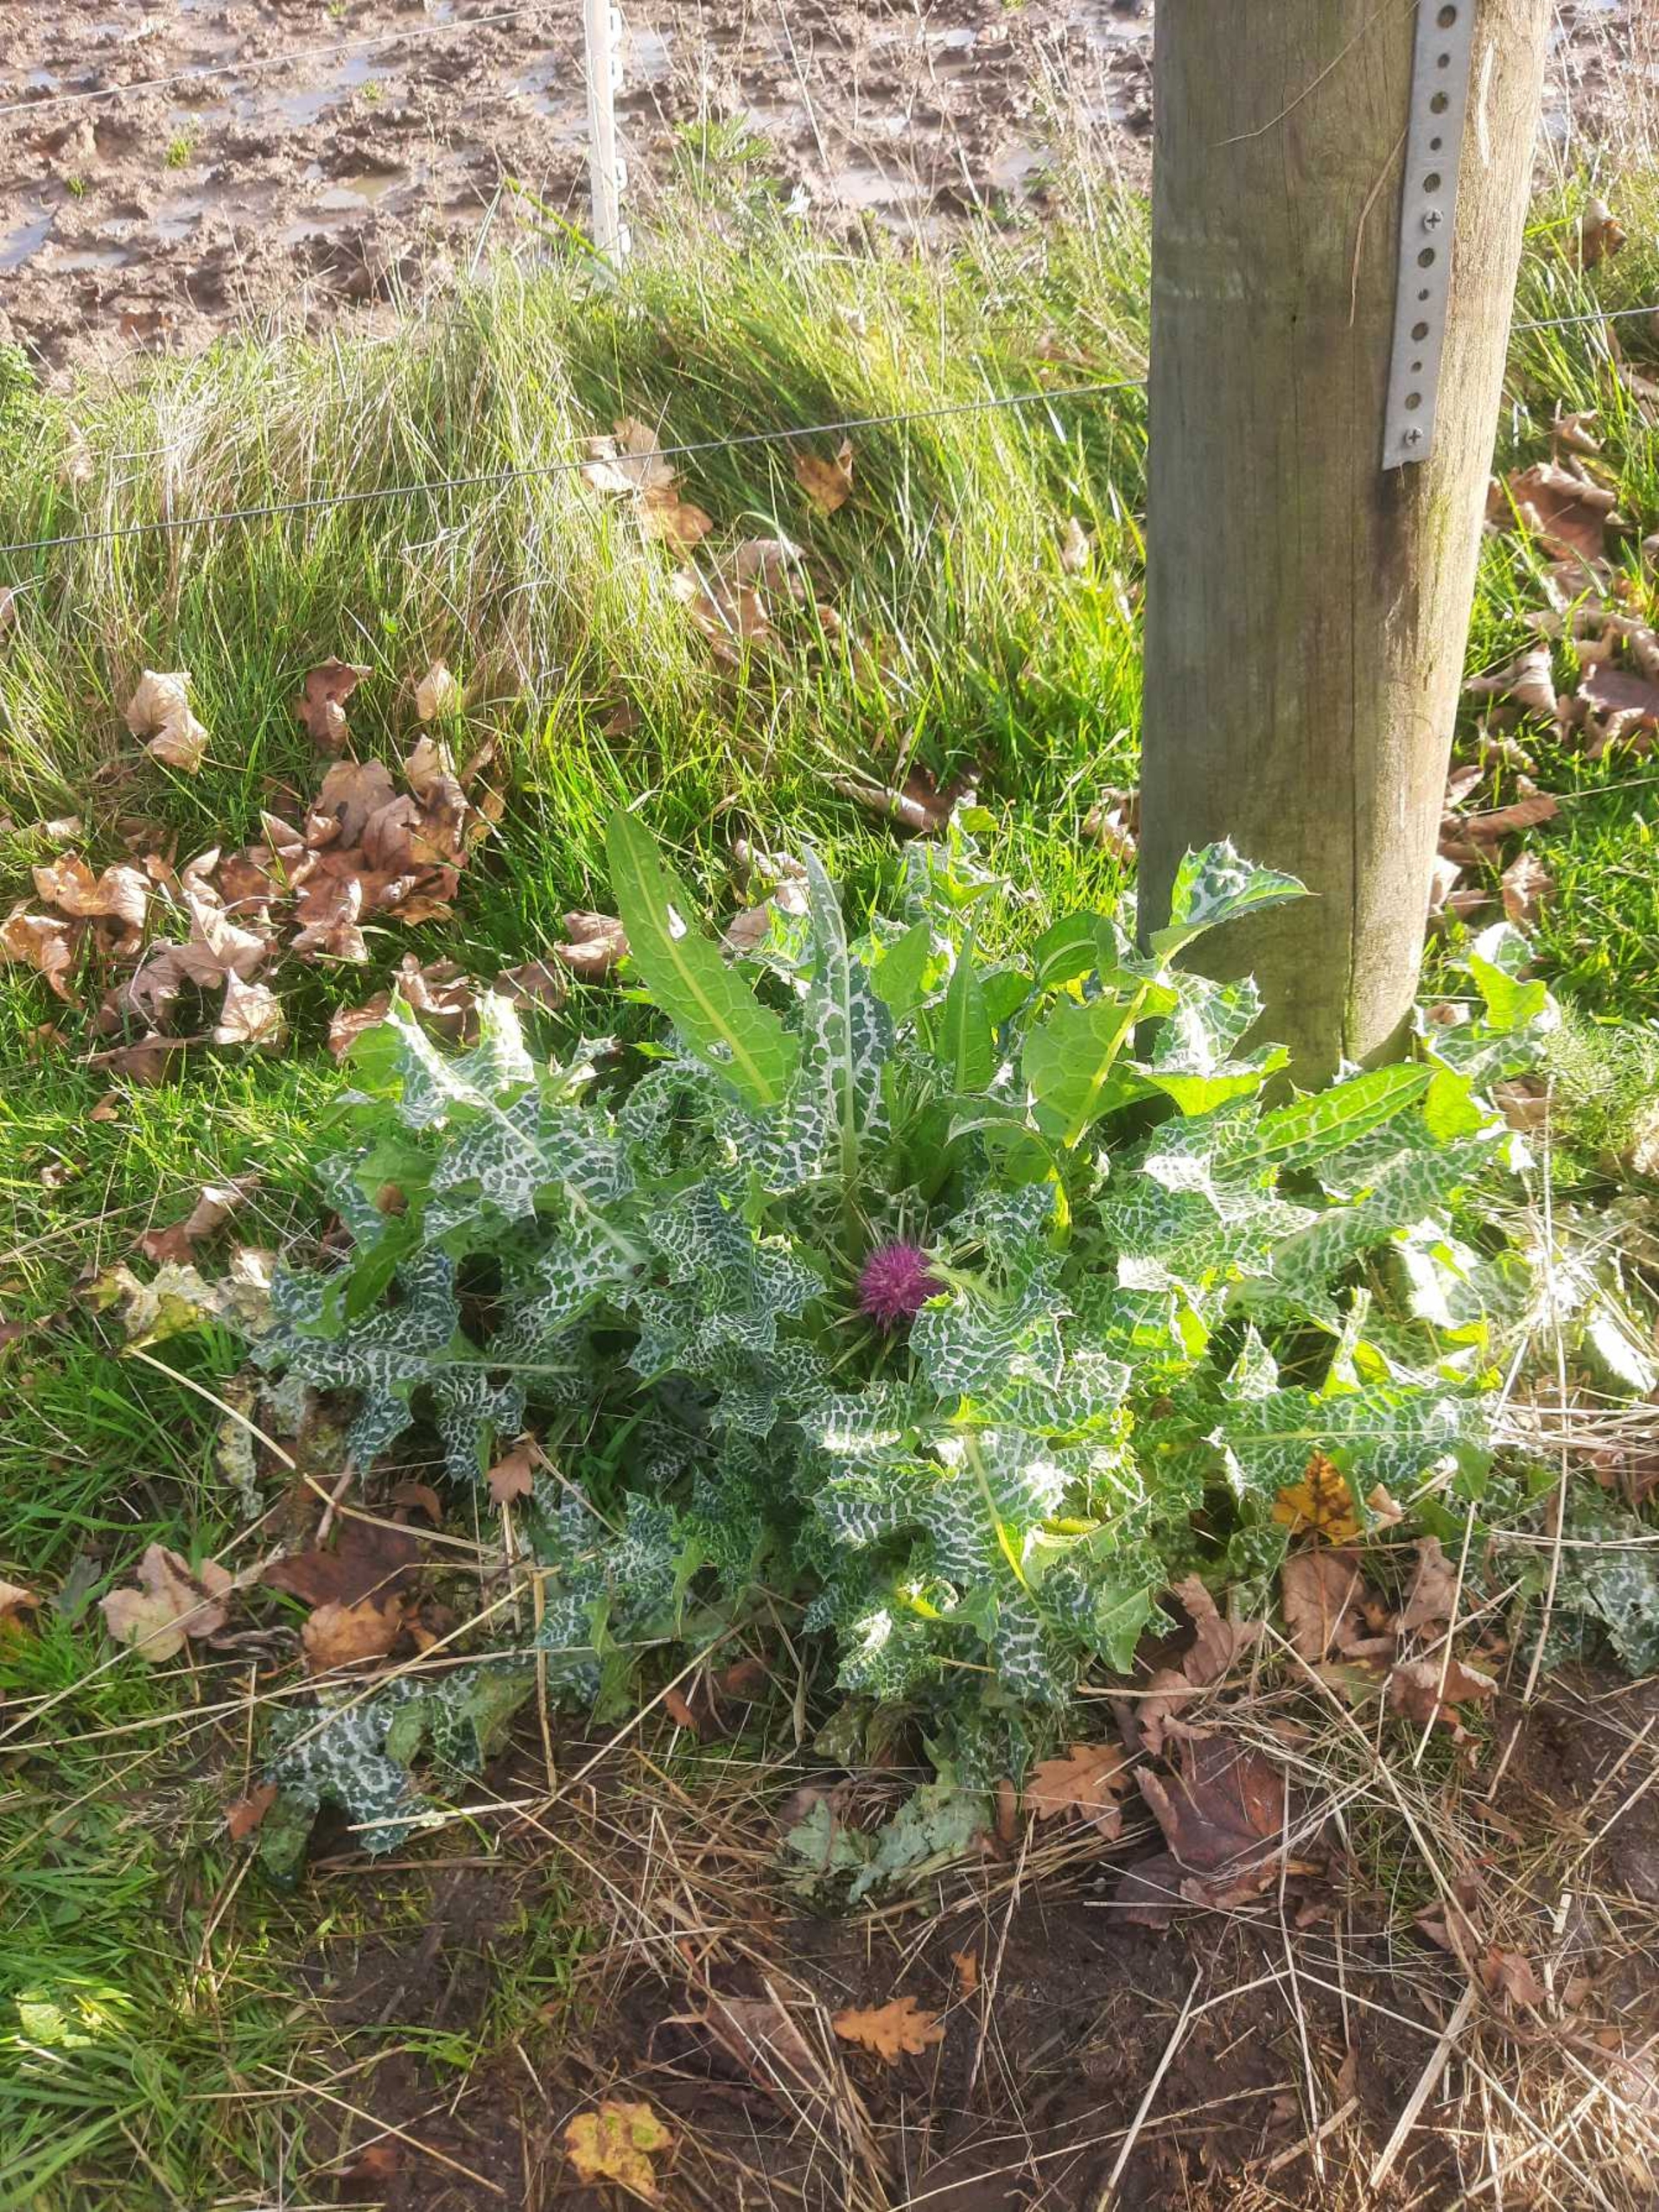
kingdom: Plantae
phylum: Tracheophyta
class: Magnoliopsida
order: Asterales
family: Asteraceae
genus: Silybum
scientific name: Silybum marianum
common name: Marietidsel
